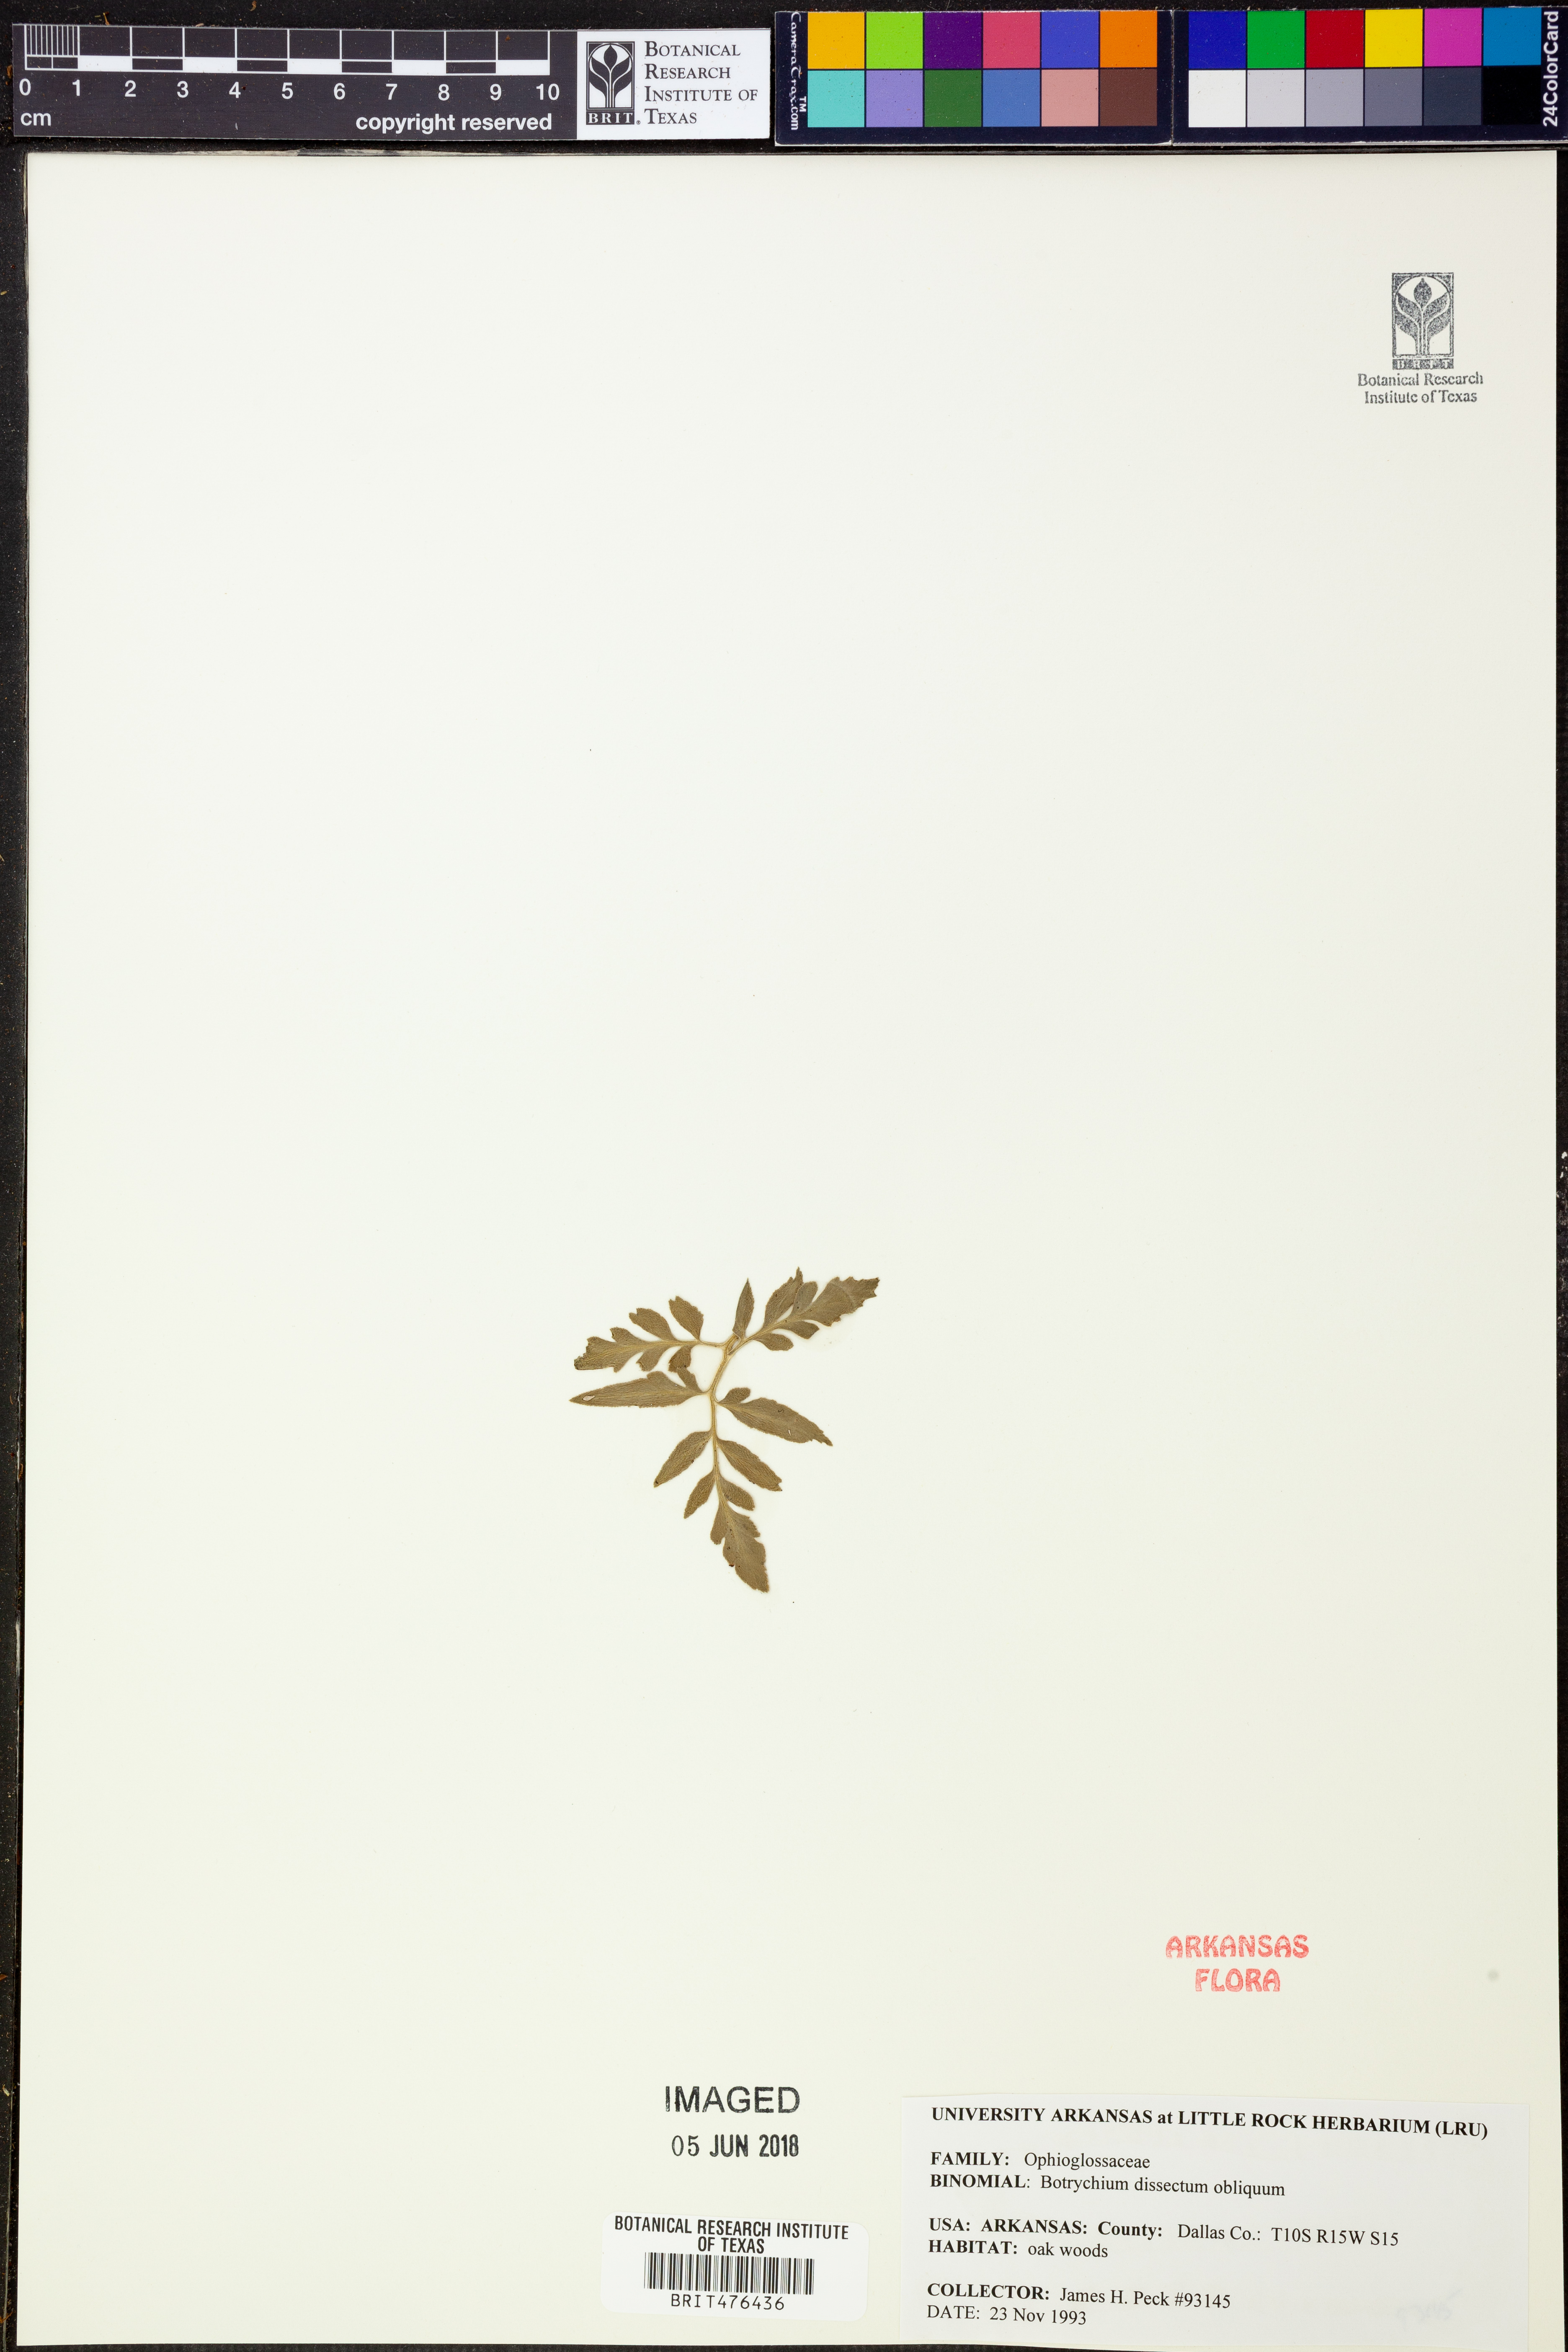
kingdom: Plantae
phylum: Tracheophyta
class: Polypodiopsida
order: Ophioglossales
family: Ophioglossaceae
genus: Sceptridium
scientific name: Sceptridium dissectum
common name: Cut-leaved grapefern
